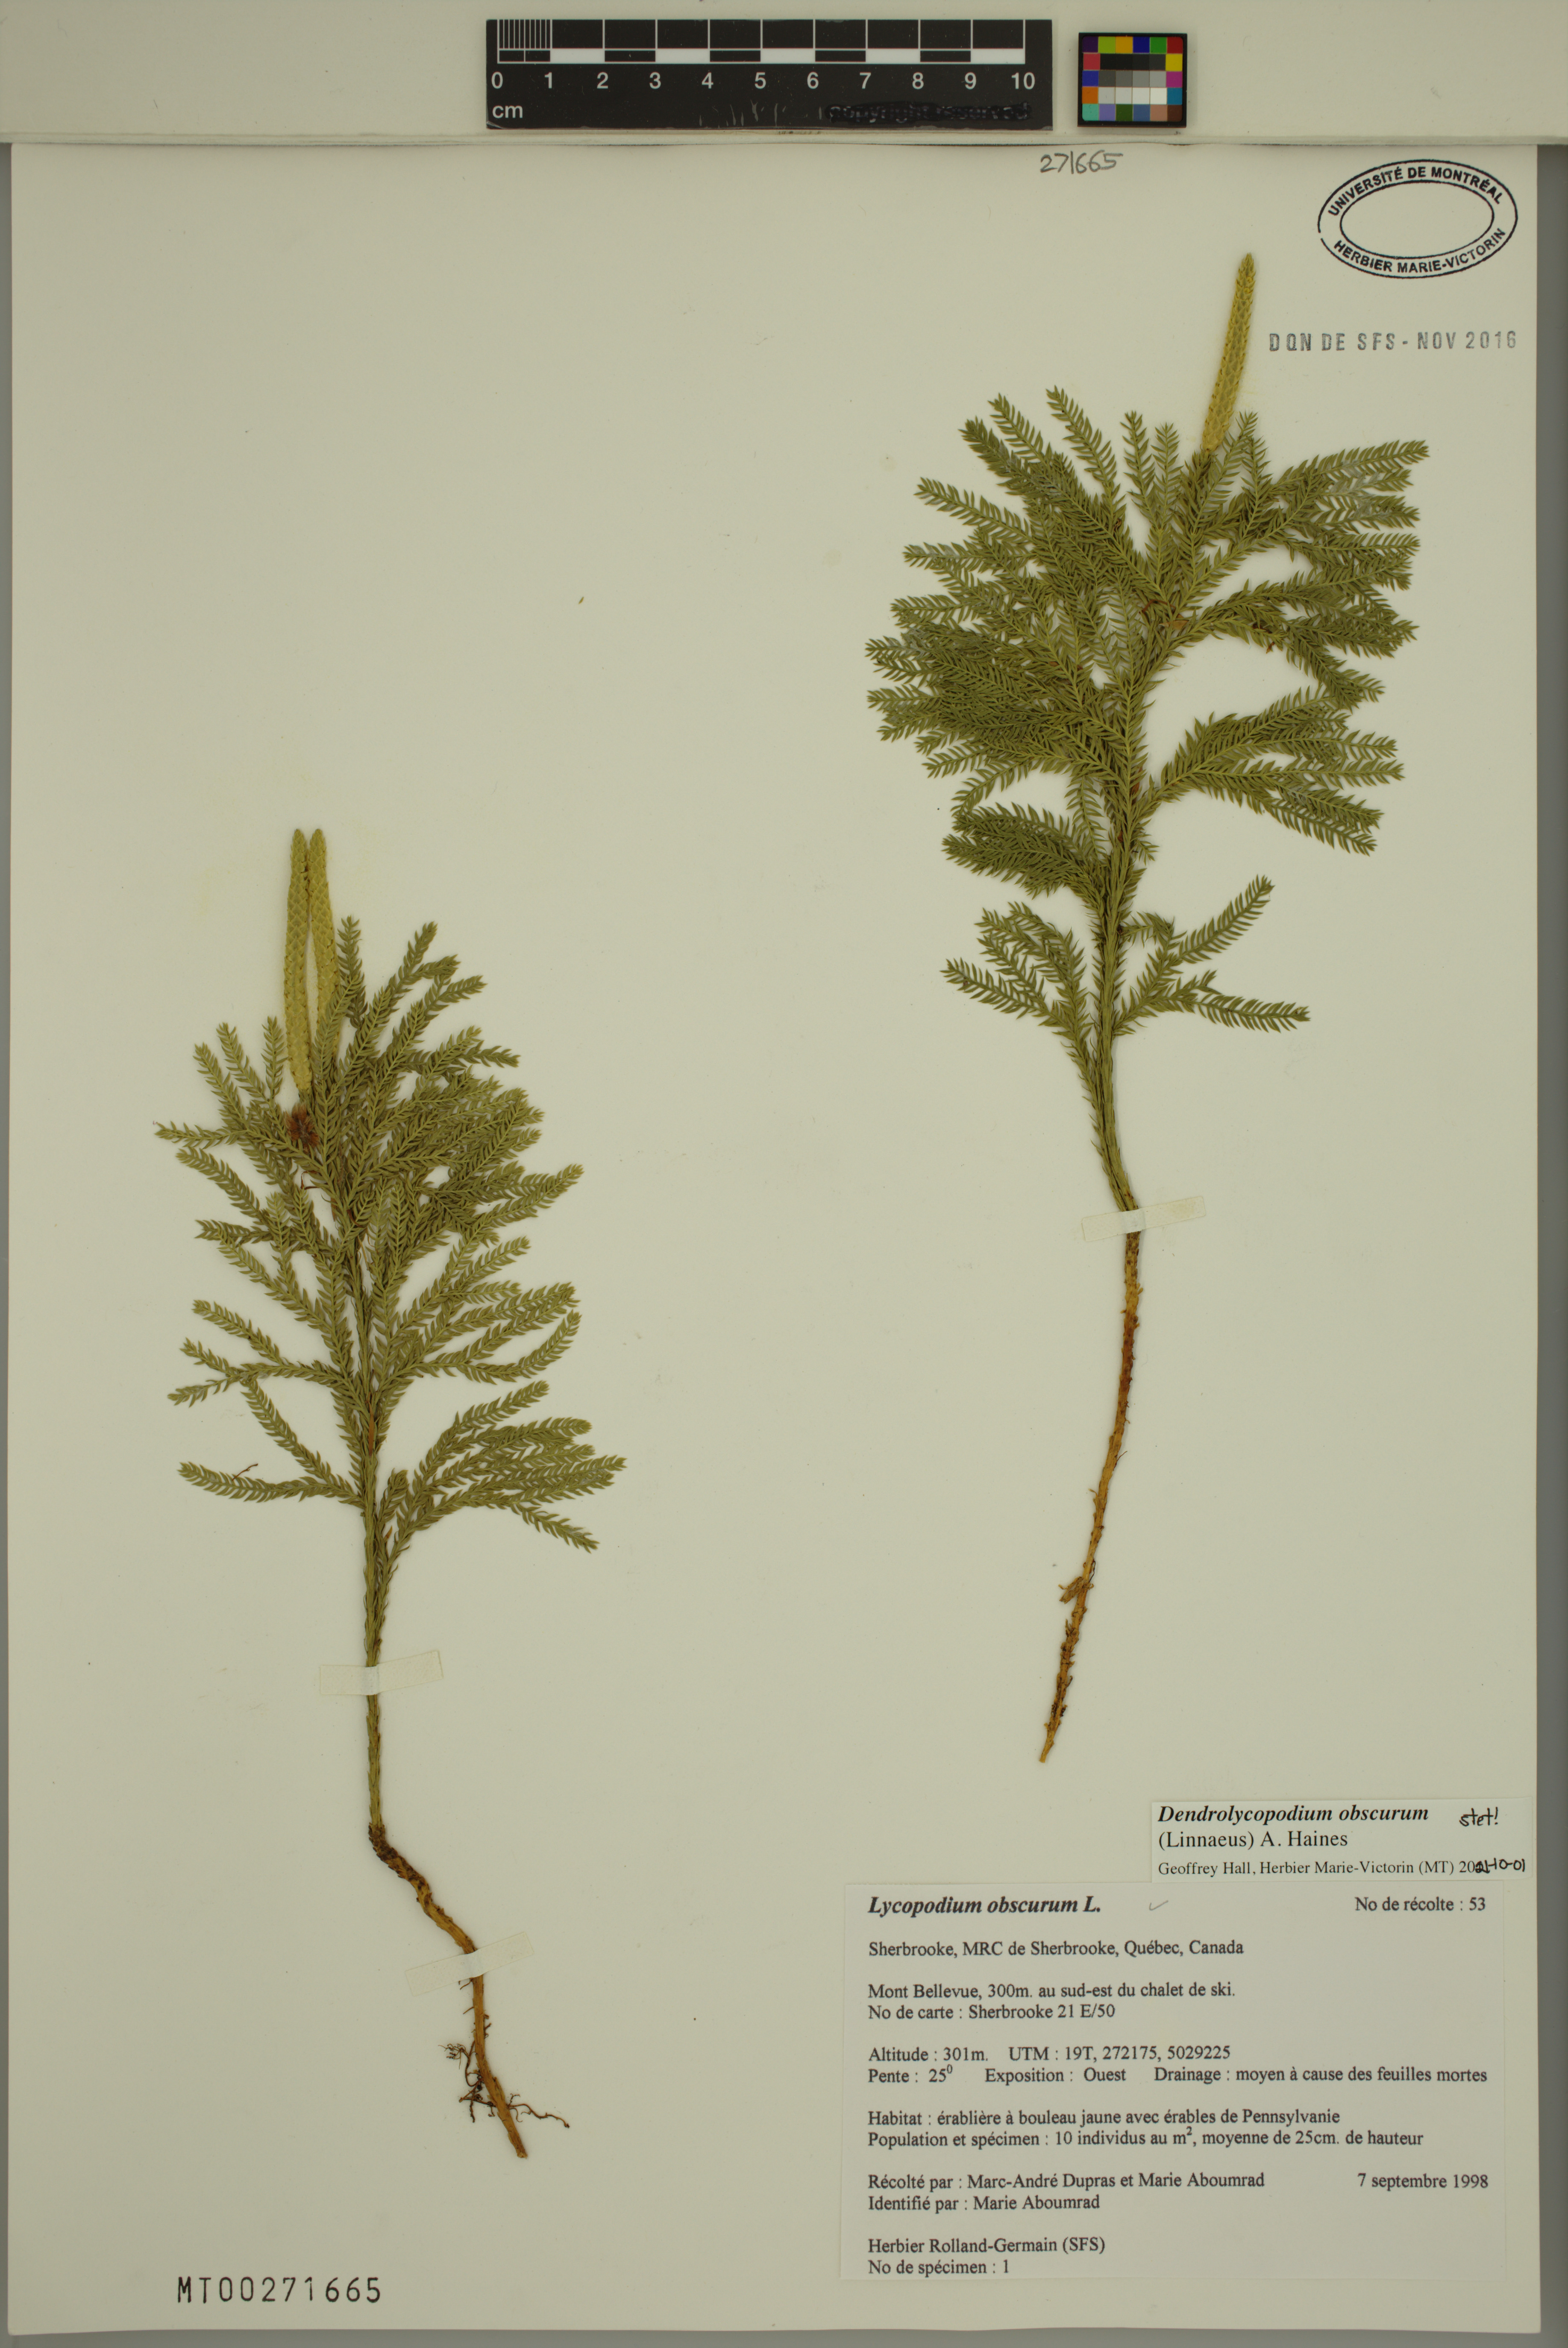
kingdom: Plantae
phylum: Tracheophyta
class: Lycopodiopsida
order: Lycopodiales
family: Lycopodiaceae
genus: Dendrolycopodium
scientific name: Dendrolycopodium obscurum
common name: Common ground-pine
